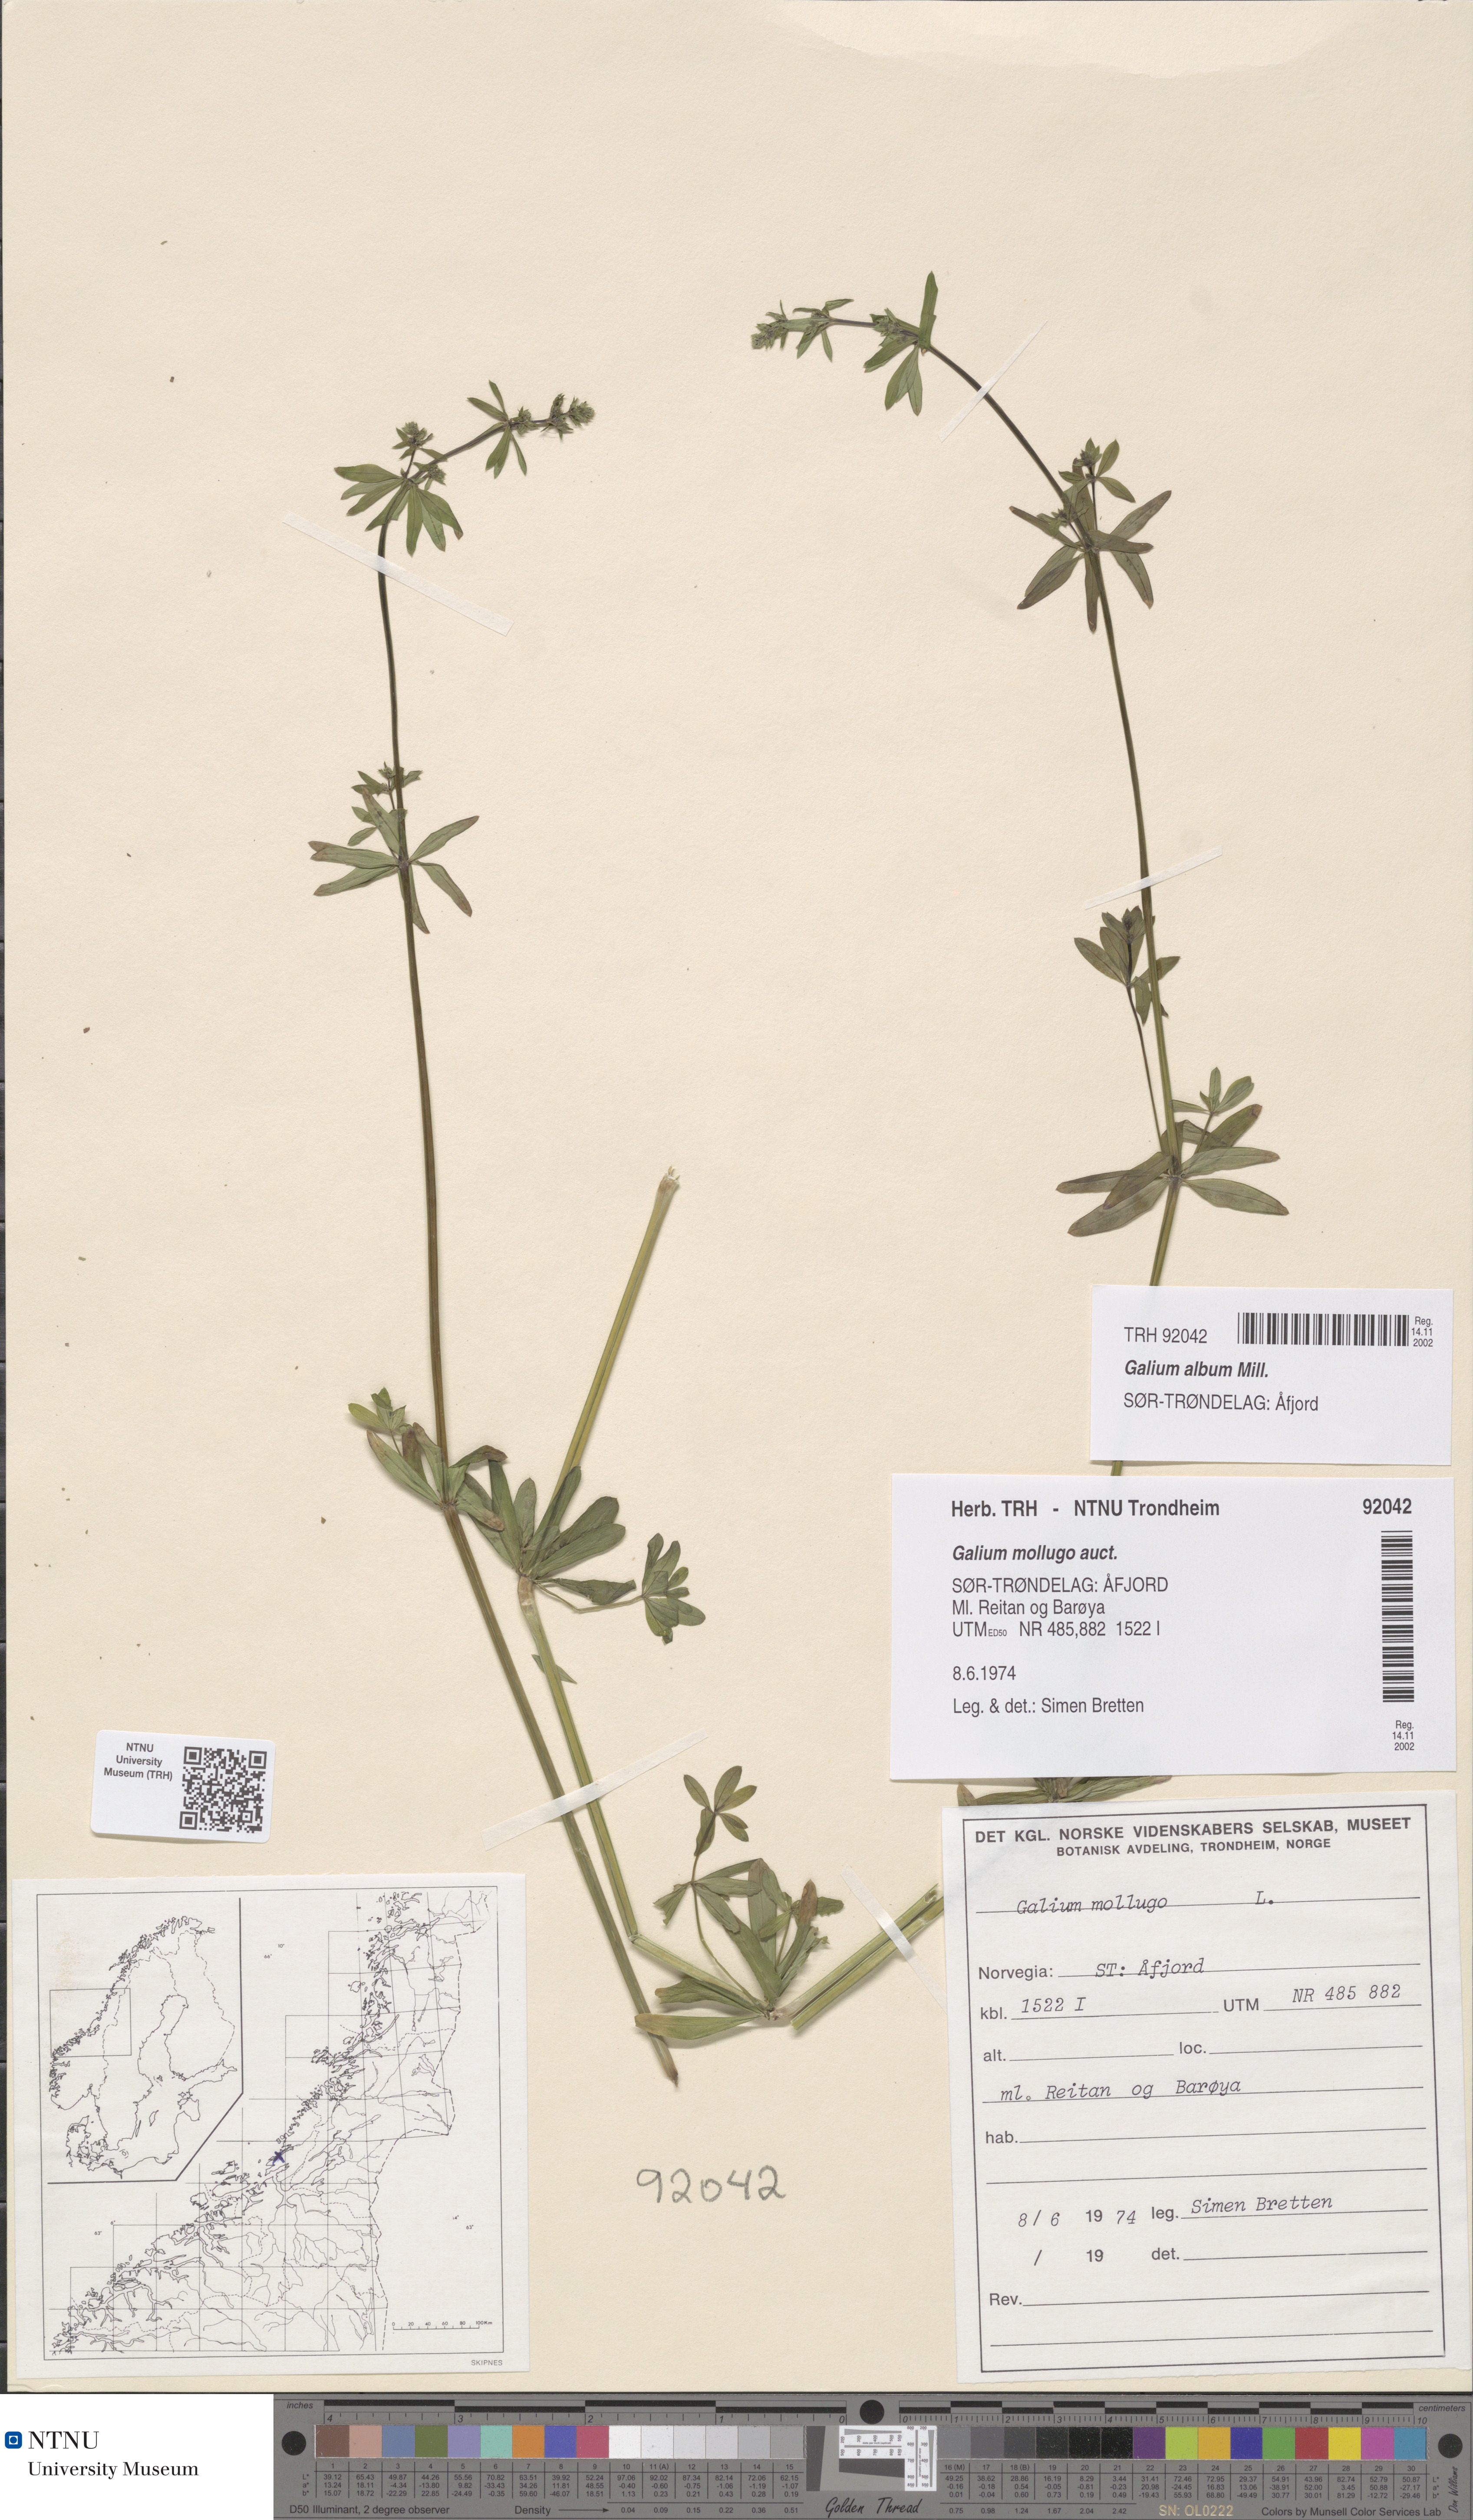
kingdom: Plantae
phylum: Tracheophyta
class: Magnoliopsida
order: Gentianales
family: Rubiaceae
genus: Galium
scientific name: Galium album
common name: White bedstraw
